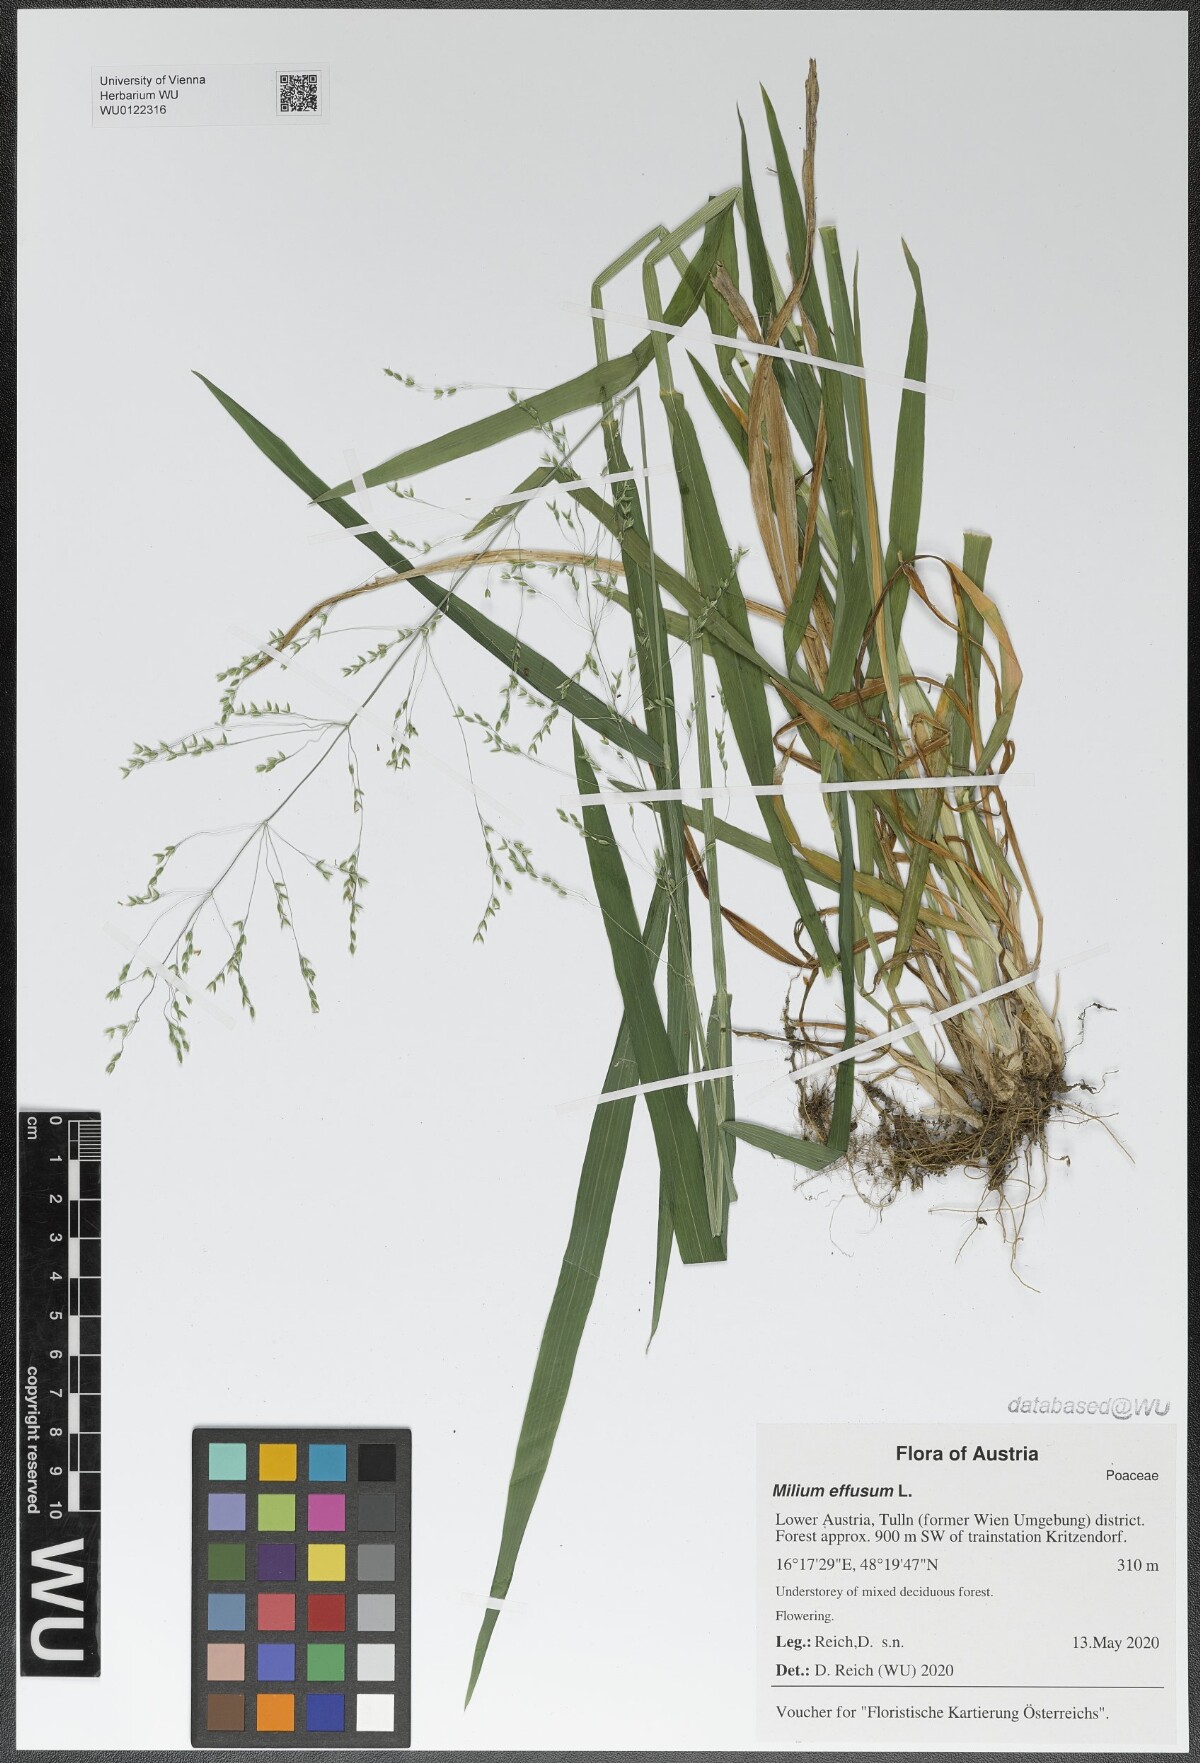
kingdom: Plantae
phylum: Tracheophyta
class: Liliopsida
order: Poales
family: Poaceae
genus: Milium
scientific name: Milium effusum
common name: Wood millet
